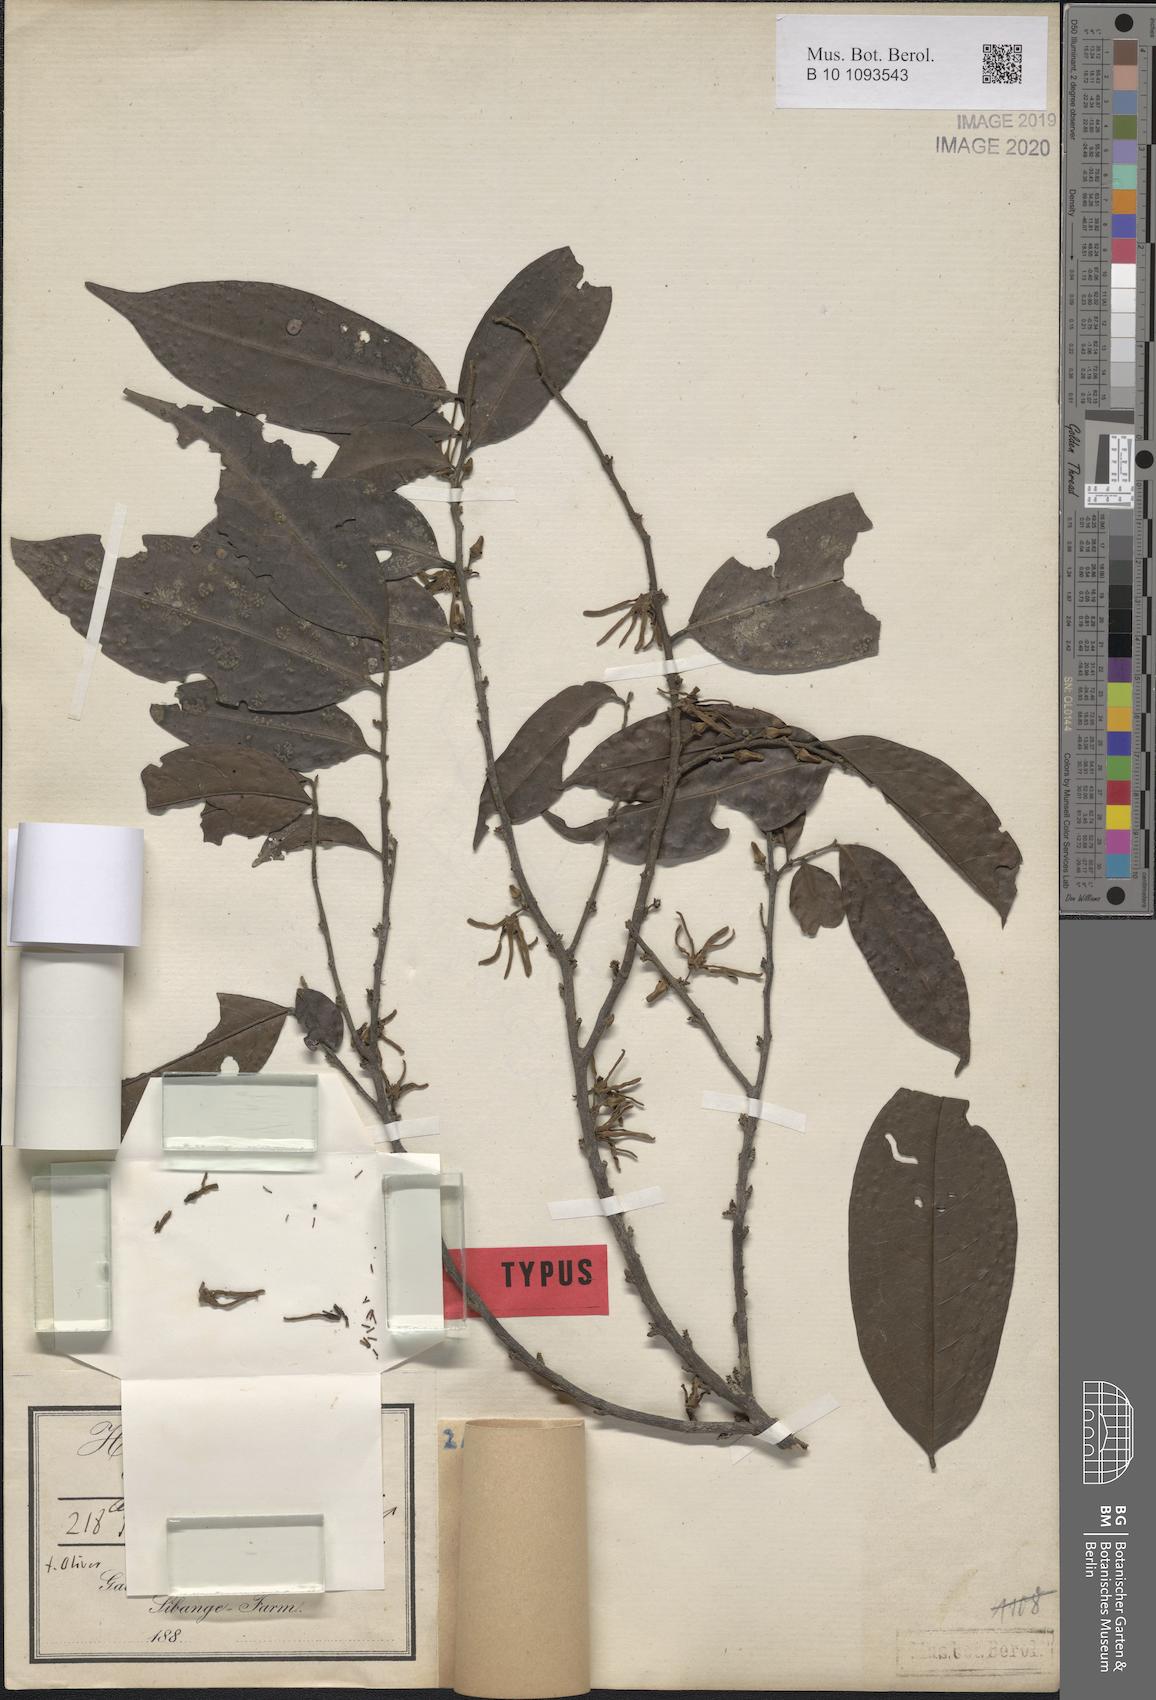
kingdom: Plantae
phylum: Tracheophyta
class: Magnoliopsida
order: Magnoliales
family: Annonaceae
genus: Greenwayodendron
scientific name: Greenwayodendron suaveolens
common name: Molinda
